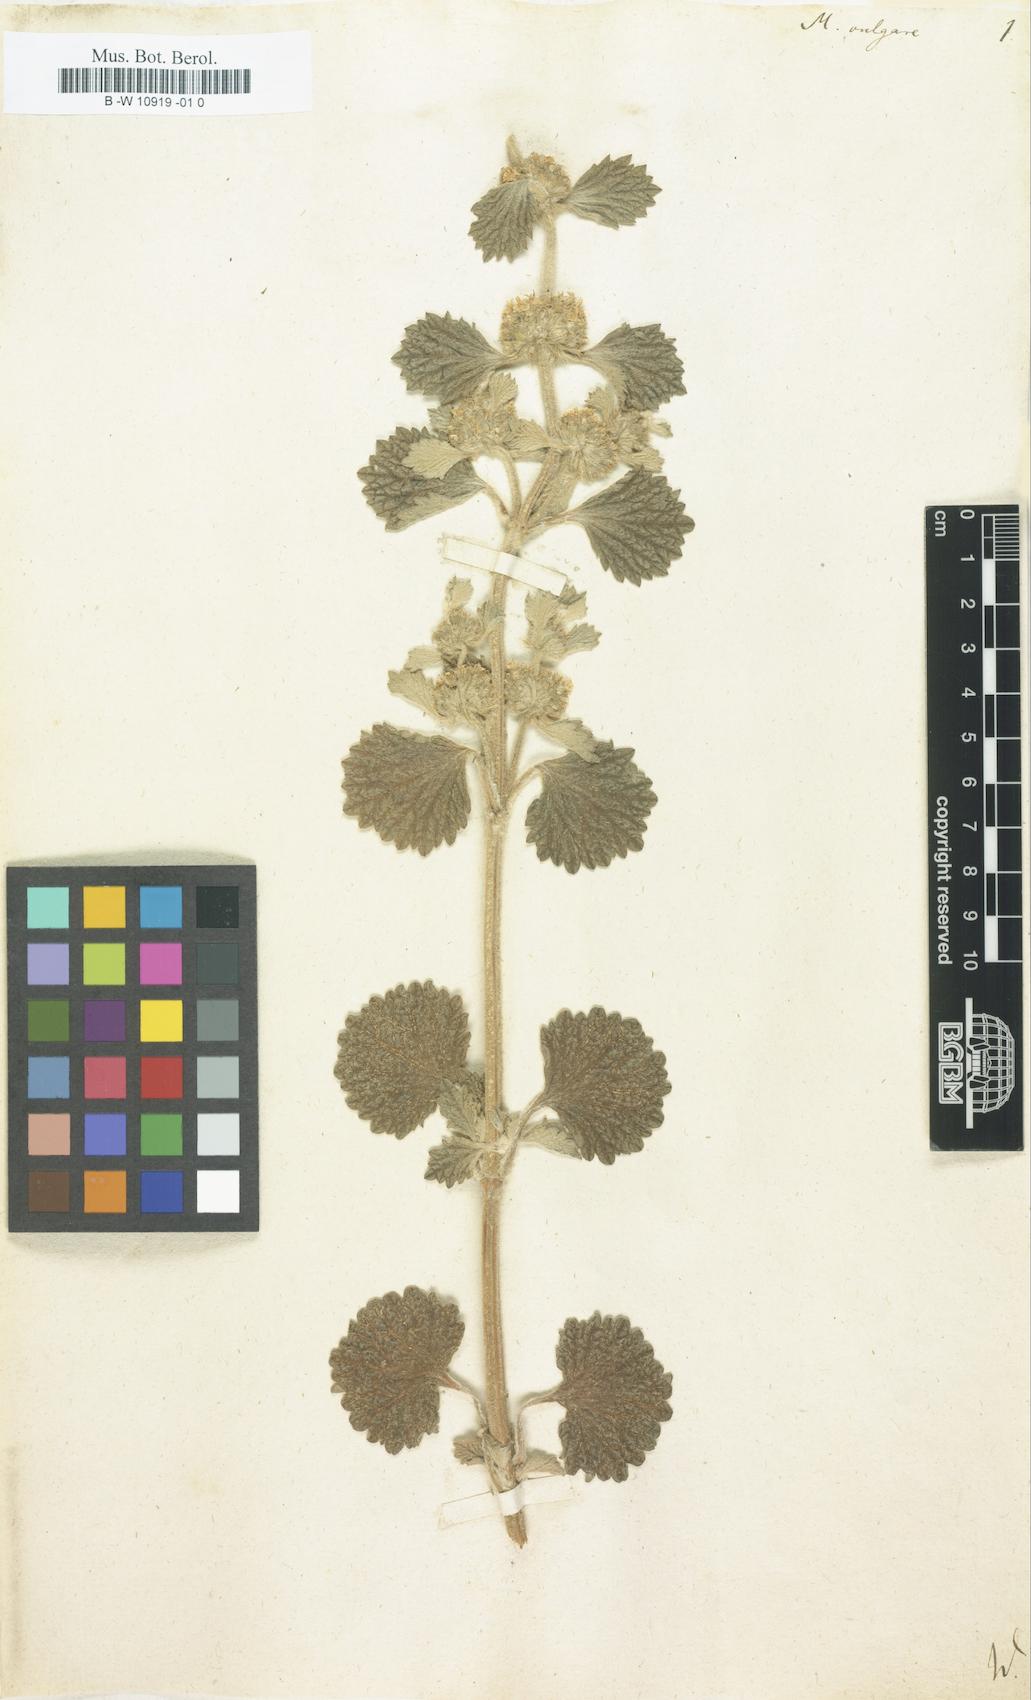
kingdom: Plantae
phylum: Tracheophyta
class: Magnoliopsida
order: Lamiales
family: Lamiaceae
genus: Marrubium
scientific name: Marrubium vulgare
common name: Horehound
